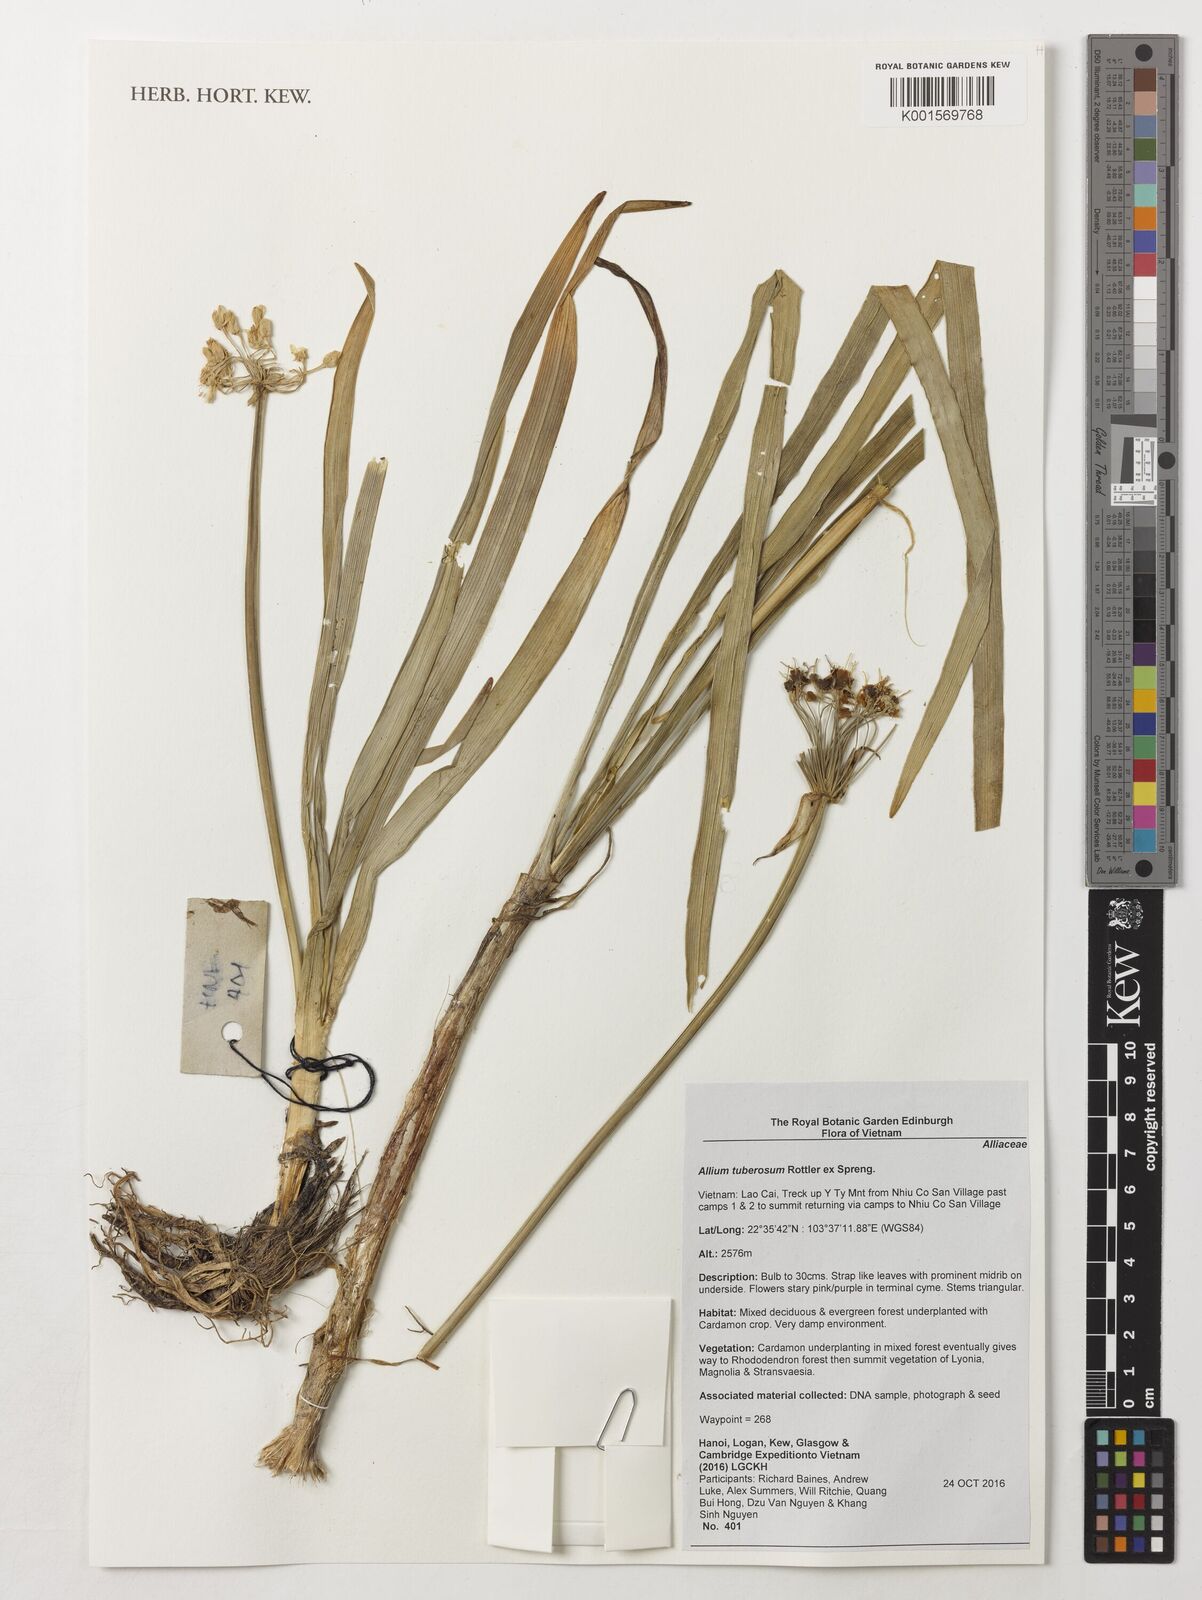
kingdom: Plantae
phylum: Tracheophyta
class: Liliopsida
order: Asparagales
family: Amaryllidaceae
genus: Allium
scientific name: Allium tuberosum
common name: Chinese chives
